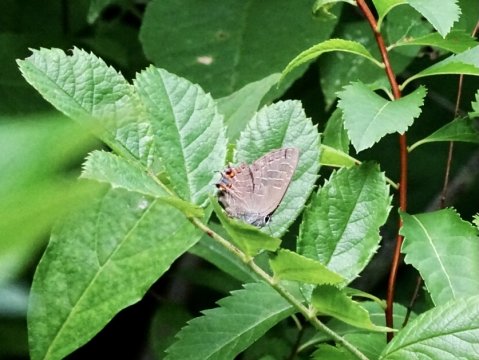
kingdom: Animalia
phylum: Arthropoda
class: Insecta
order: Lepidoptera
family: Lycaenidae
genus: Satyrium
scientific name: Satyrium liparops
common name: Striped Hairstreak
